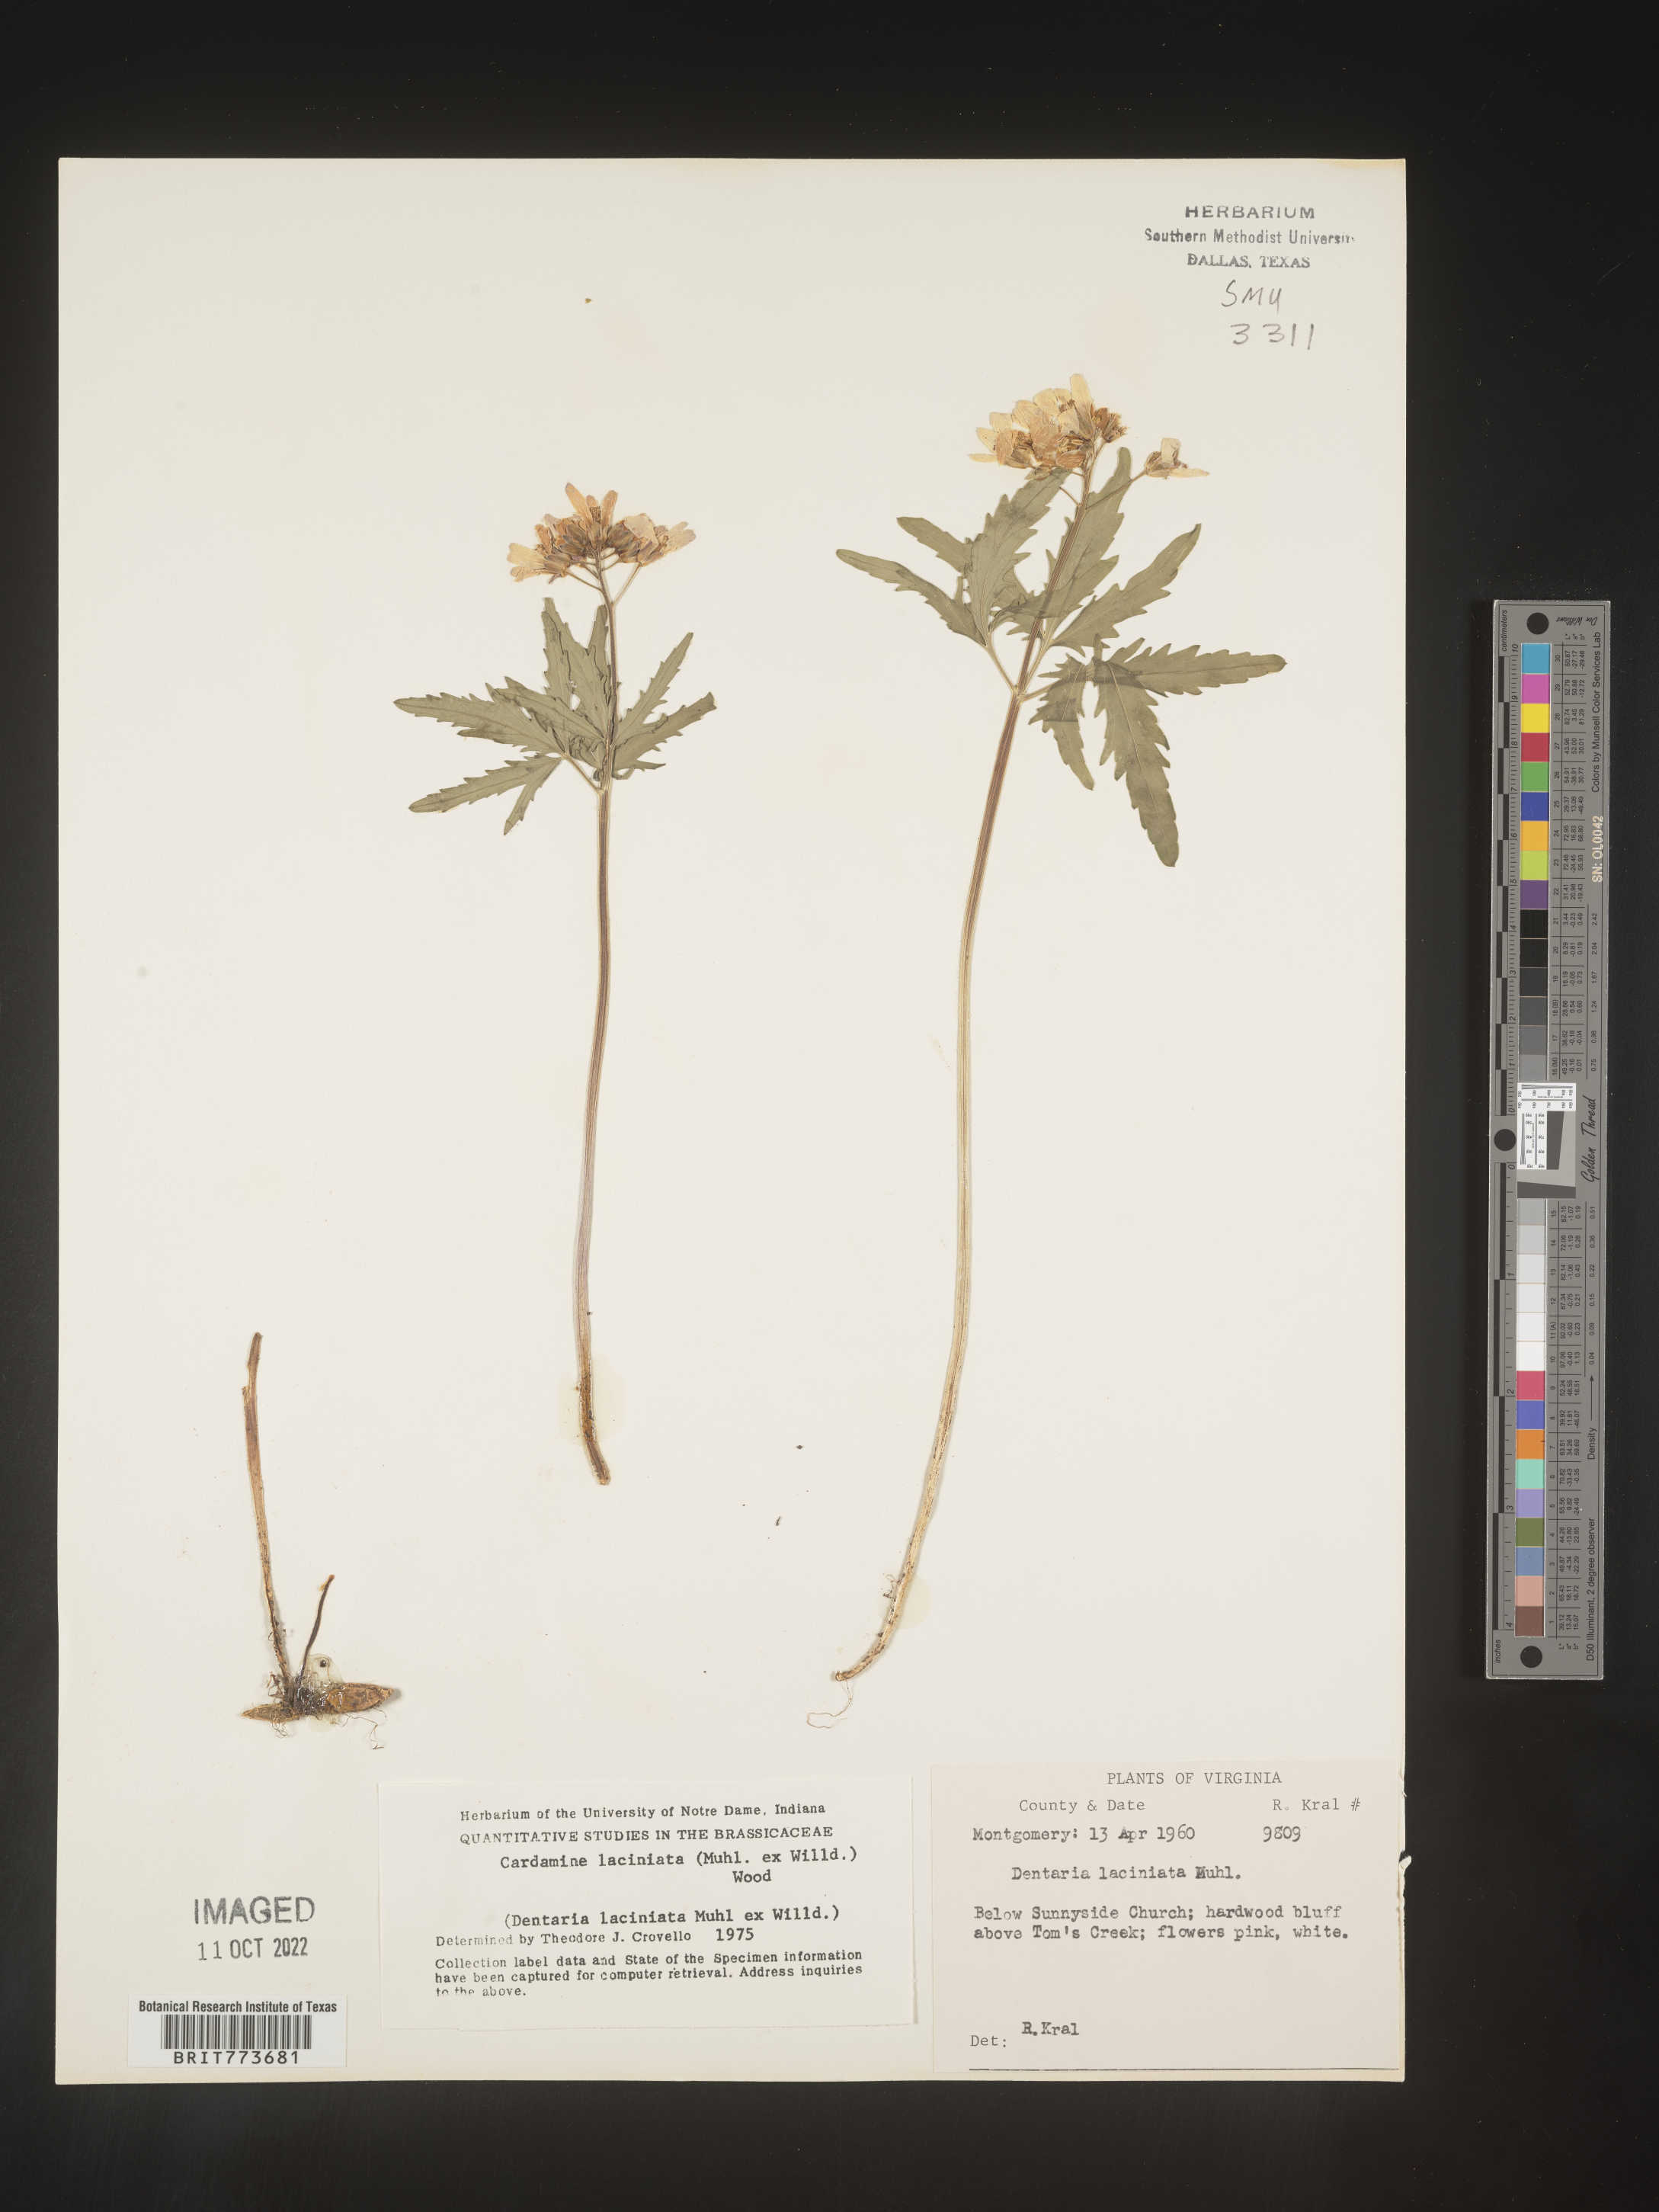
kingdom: Plantae
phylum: Tracheophyta
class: Magnoliopsida
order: Brassicales
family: Brassicaceae
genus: Rorippa
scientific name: Rorippa laciniata
